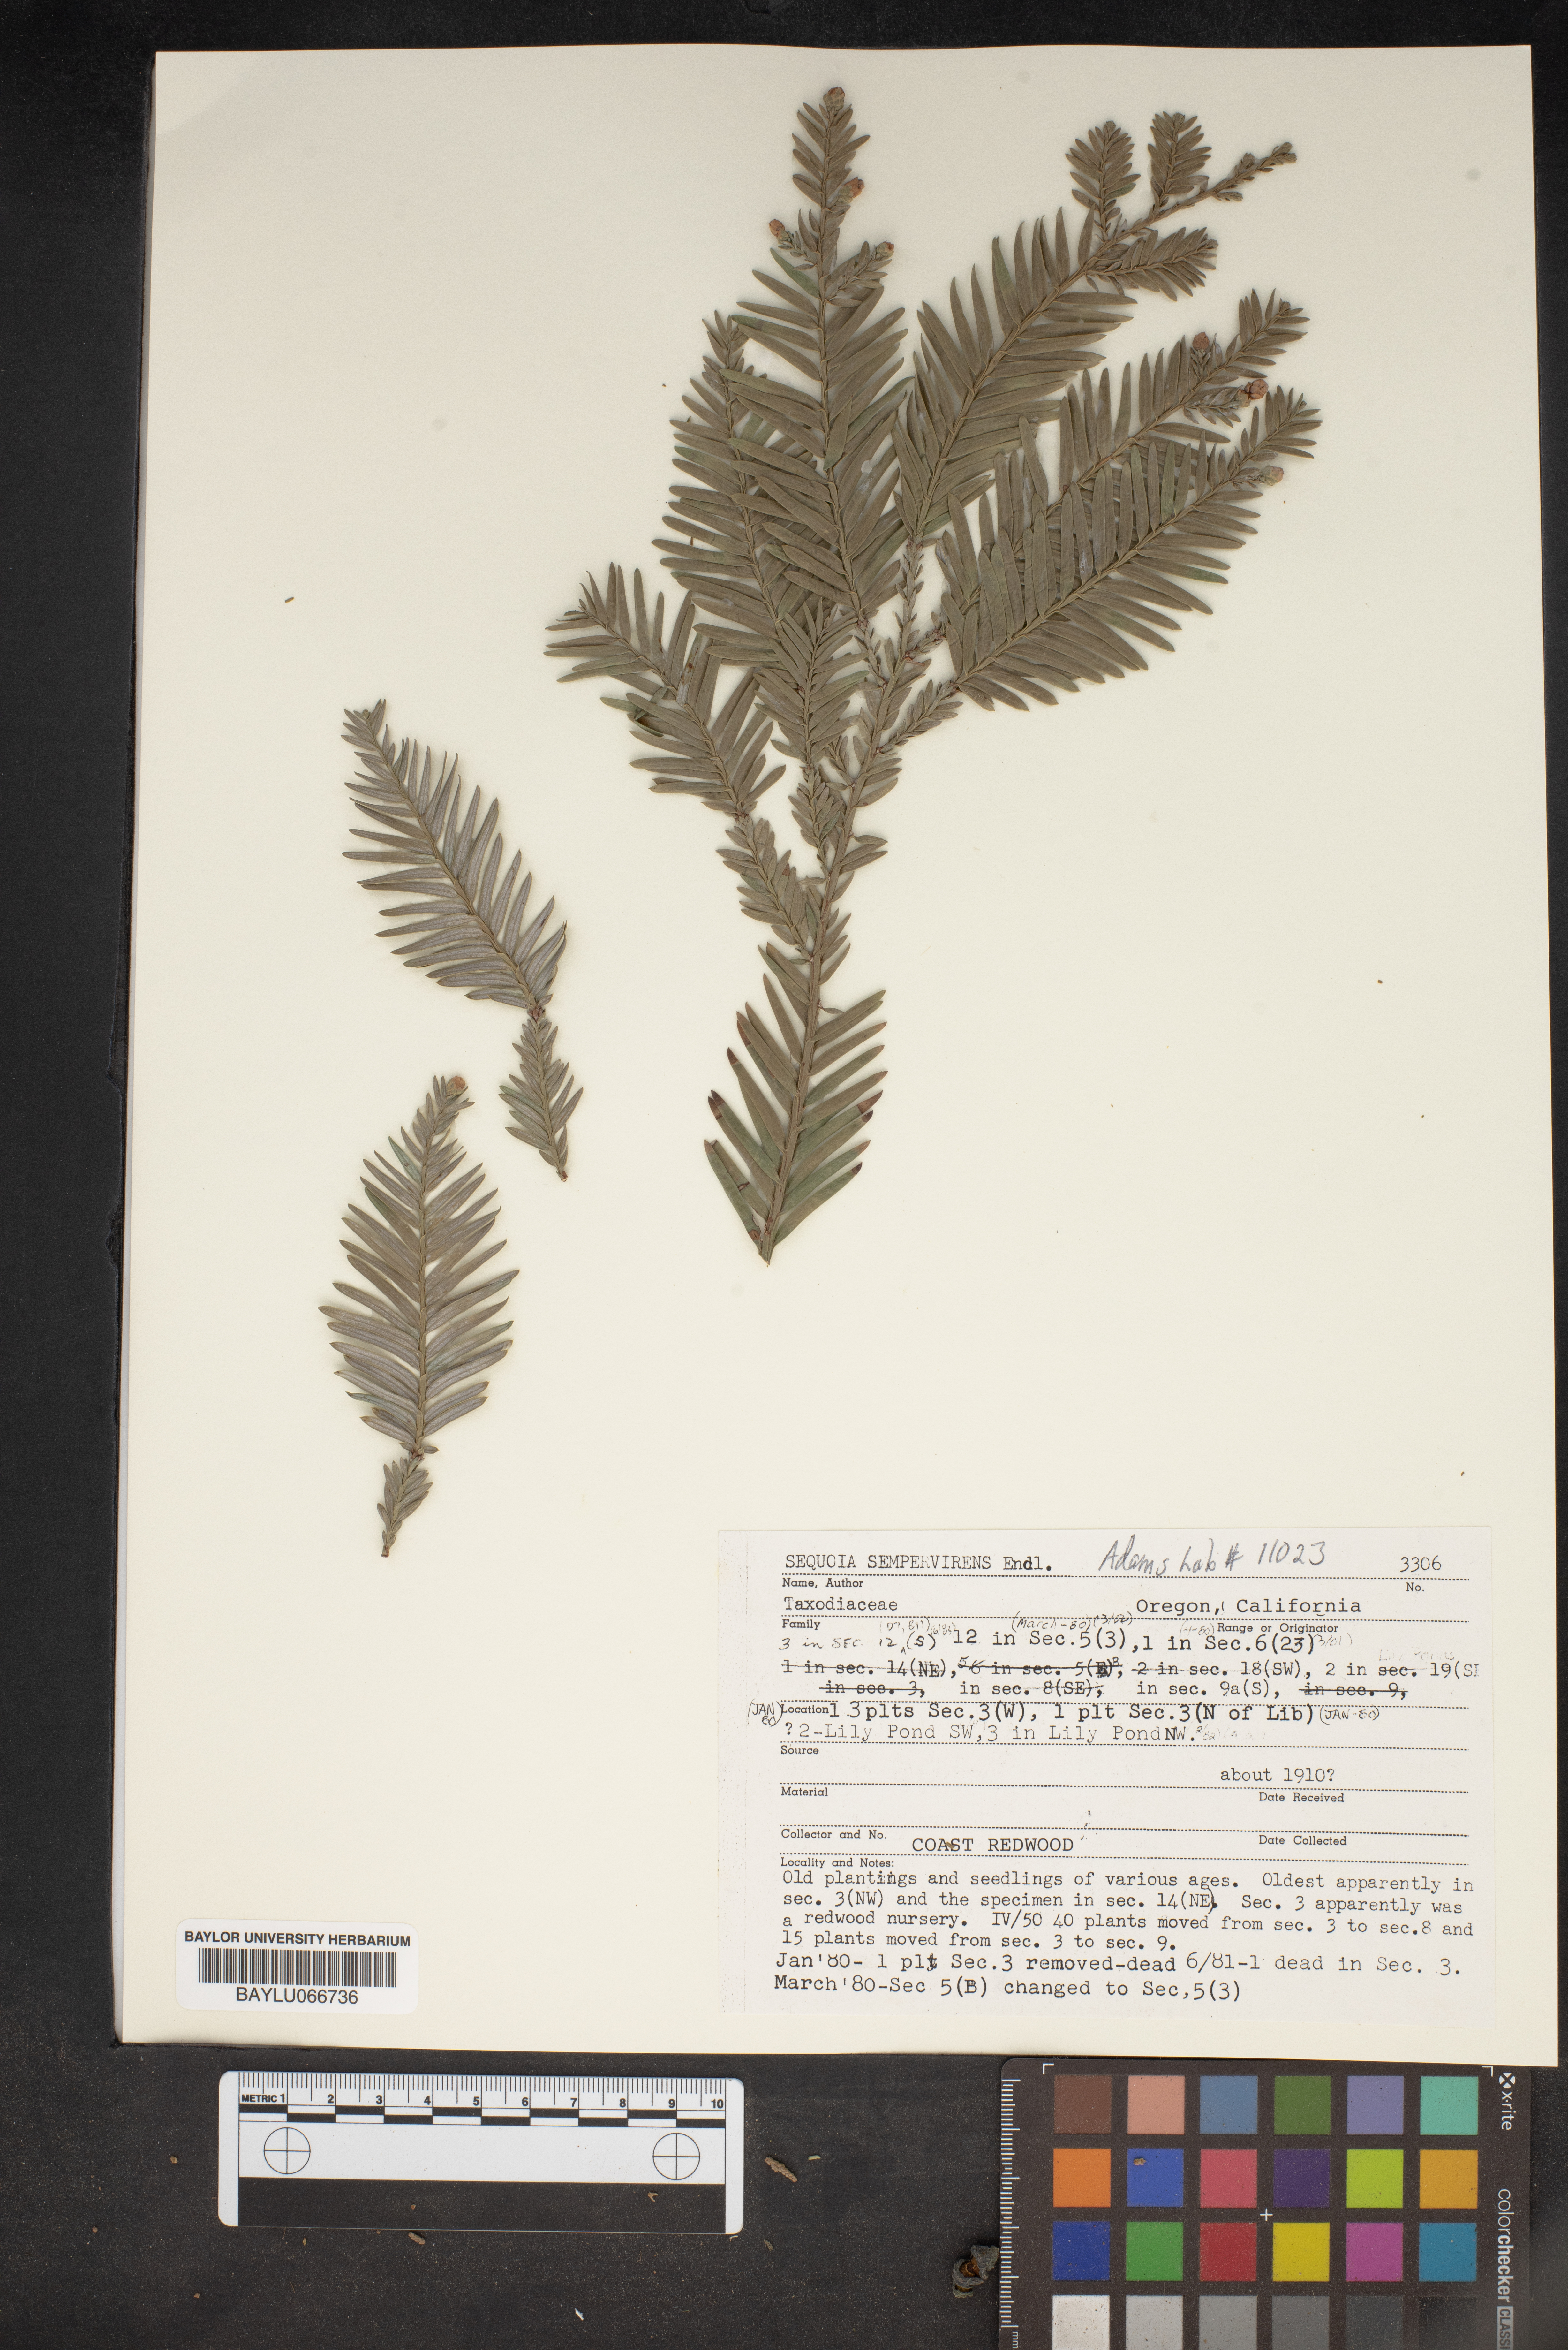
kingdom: Plantae
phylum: Tracheophyta
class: Pinopsida
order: Pinales
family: Cupressaceae
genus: Sequoia
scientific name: Sequoia sempervirens
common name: Coast redwood
